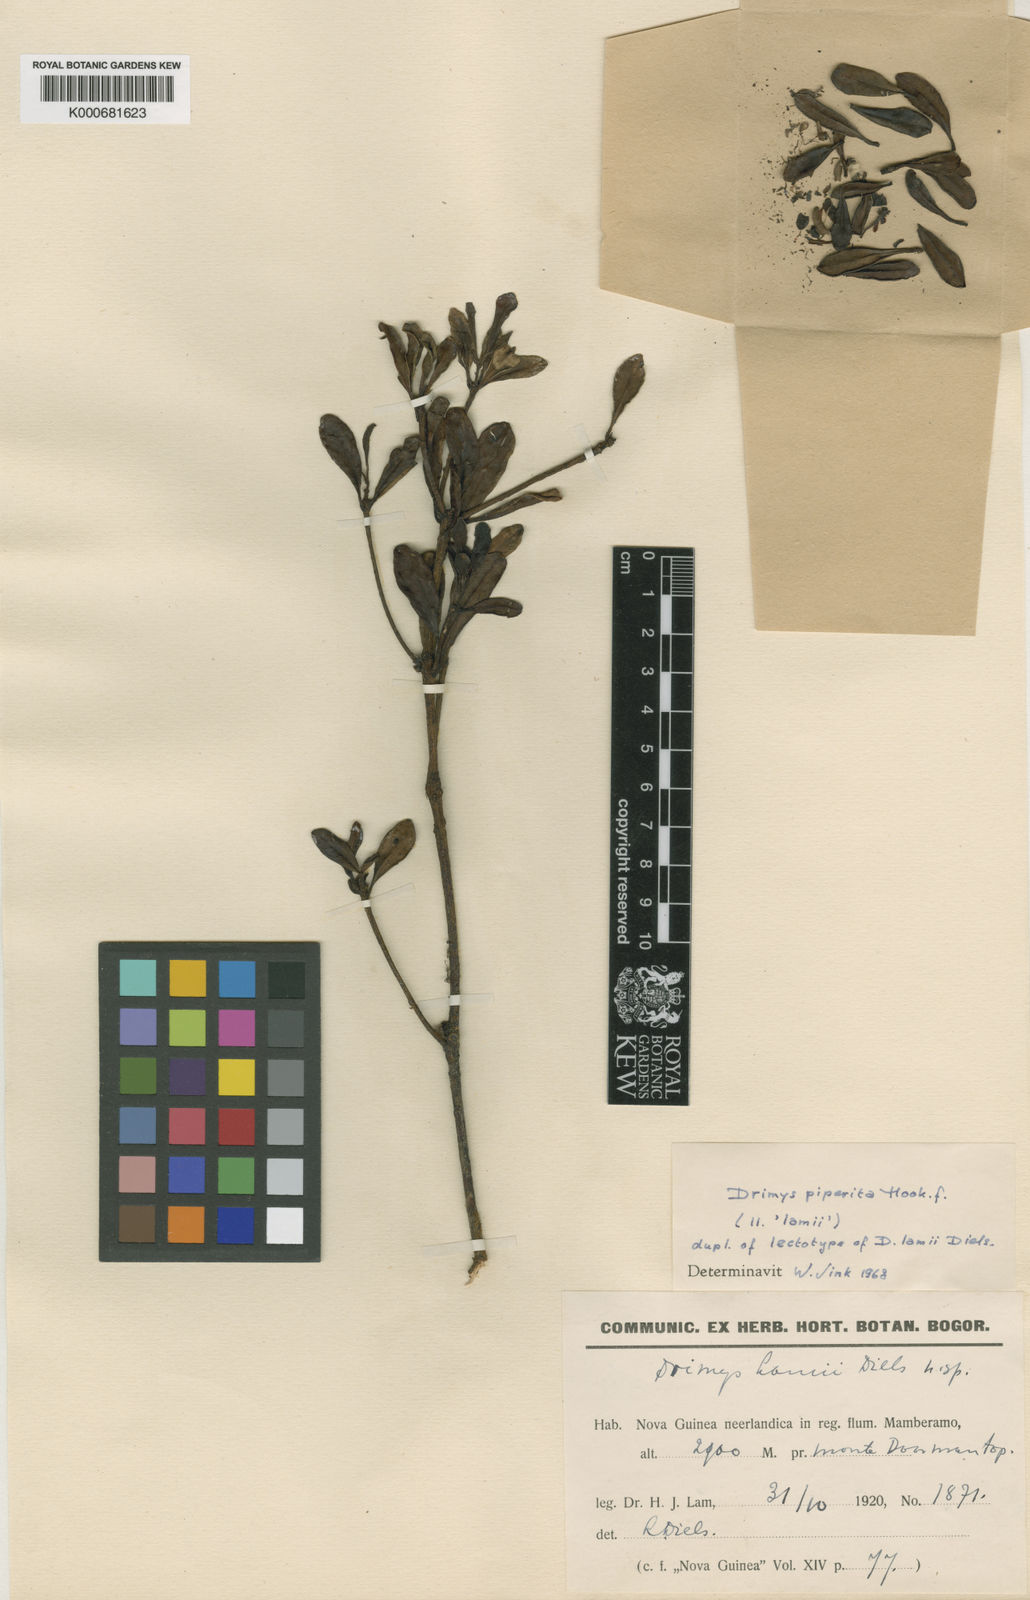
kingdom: Plantae
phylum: Tracheophyta
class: Magnoliopsida
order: Canellales
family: Winteraceae
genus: Drimys
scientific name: Drimys piperita
